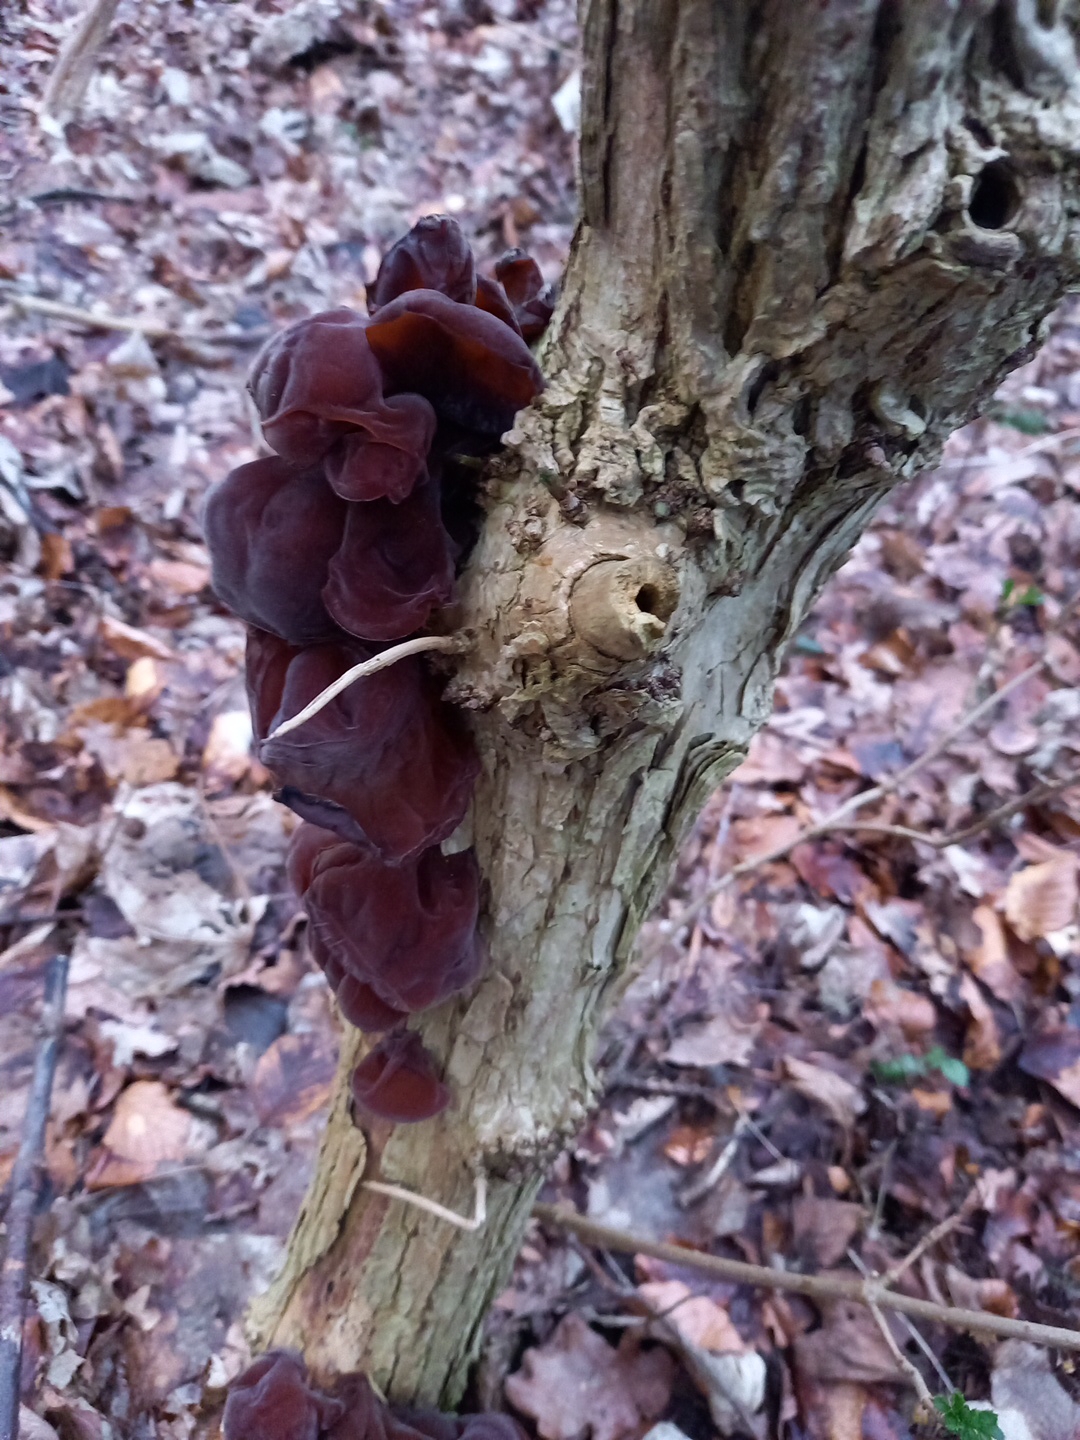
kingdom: Fungi
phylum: Basidiomycota
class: Agaricomycetes
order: Auriculariales
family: Auriculariaceae
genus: Auricularia
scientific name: Auricularia auricula-judae
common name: almindelig judasøre
